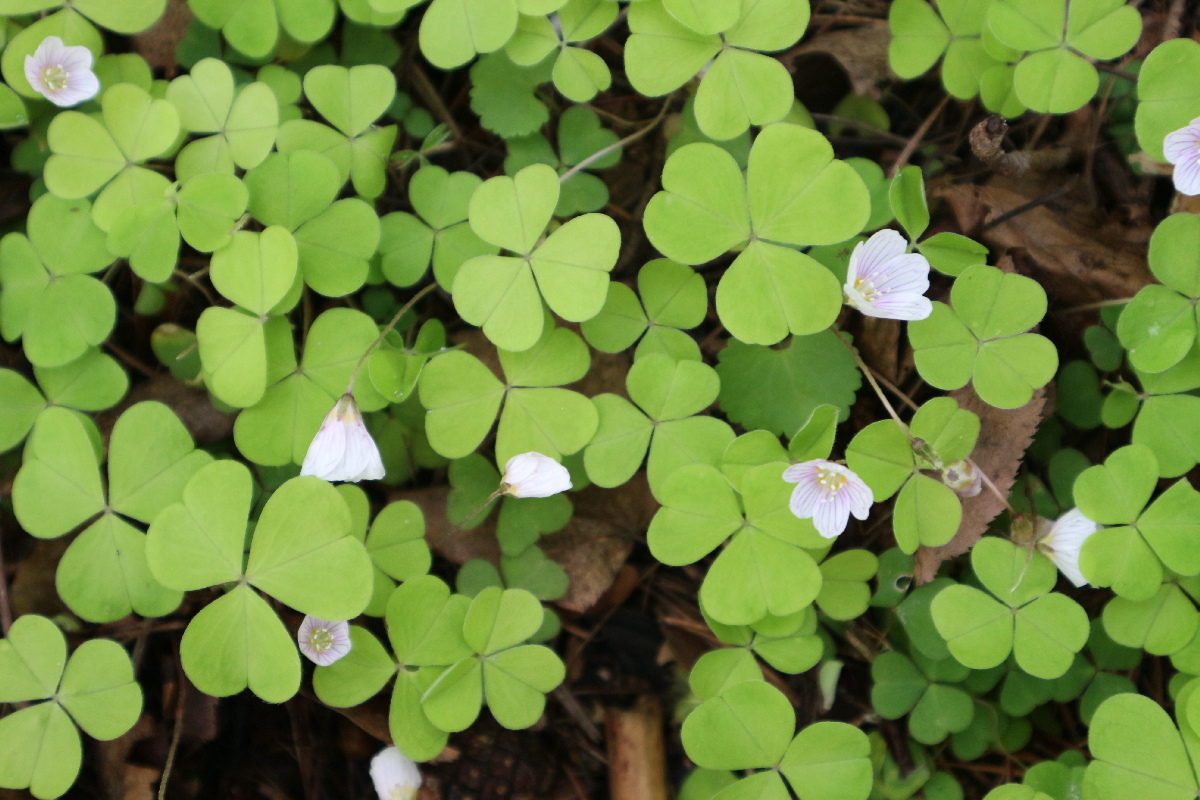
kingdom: Plantae
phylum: Tracheophyta
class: Magnoliopsida
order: Oxalidales
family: Oxalidaceae
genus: Oxalis
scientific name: Oxalis acetosella
